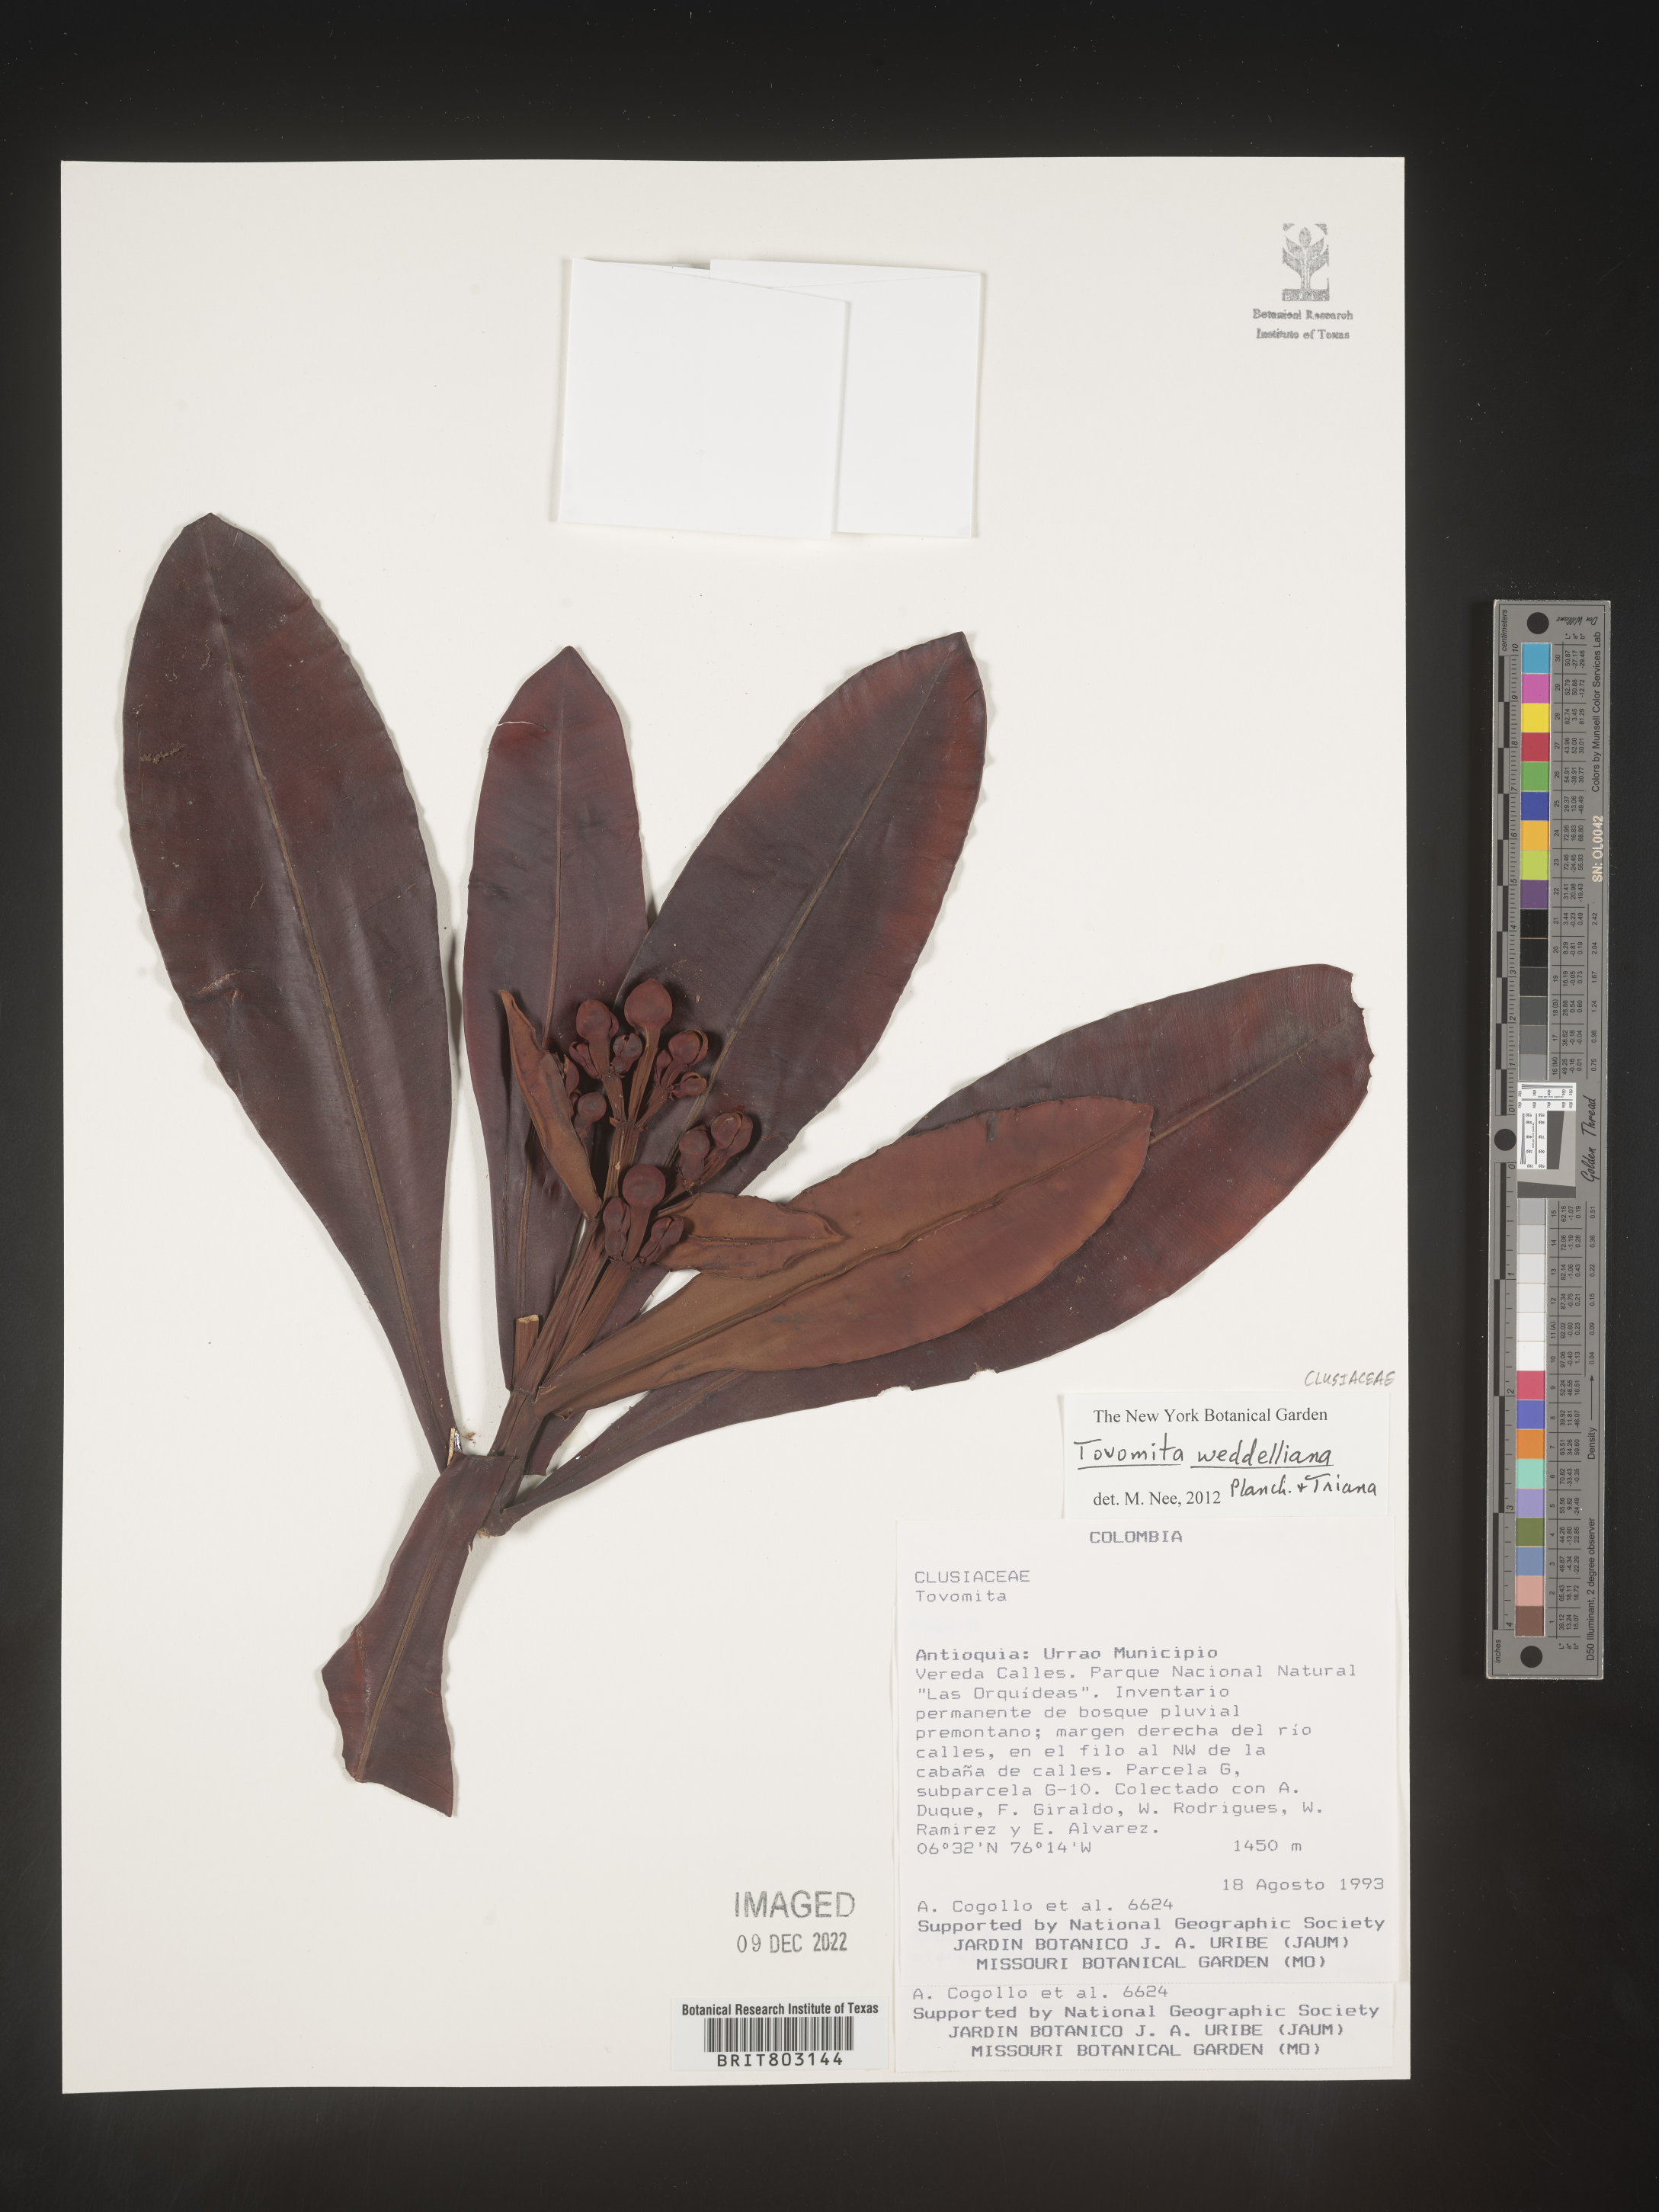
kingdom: Plantae
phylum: Tracheophyta
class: Magnoliopsida
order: Malpighiales
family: Clusiaceae
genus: Arawakia
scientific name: Arawakia weddelliana
